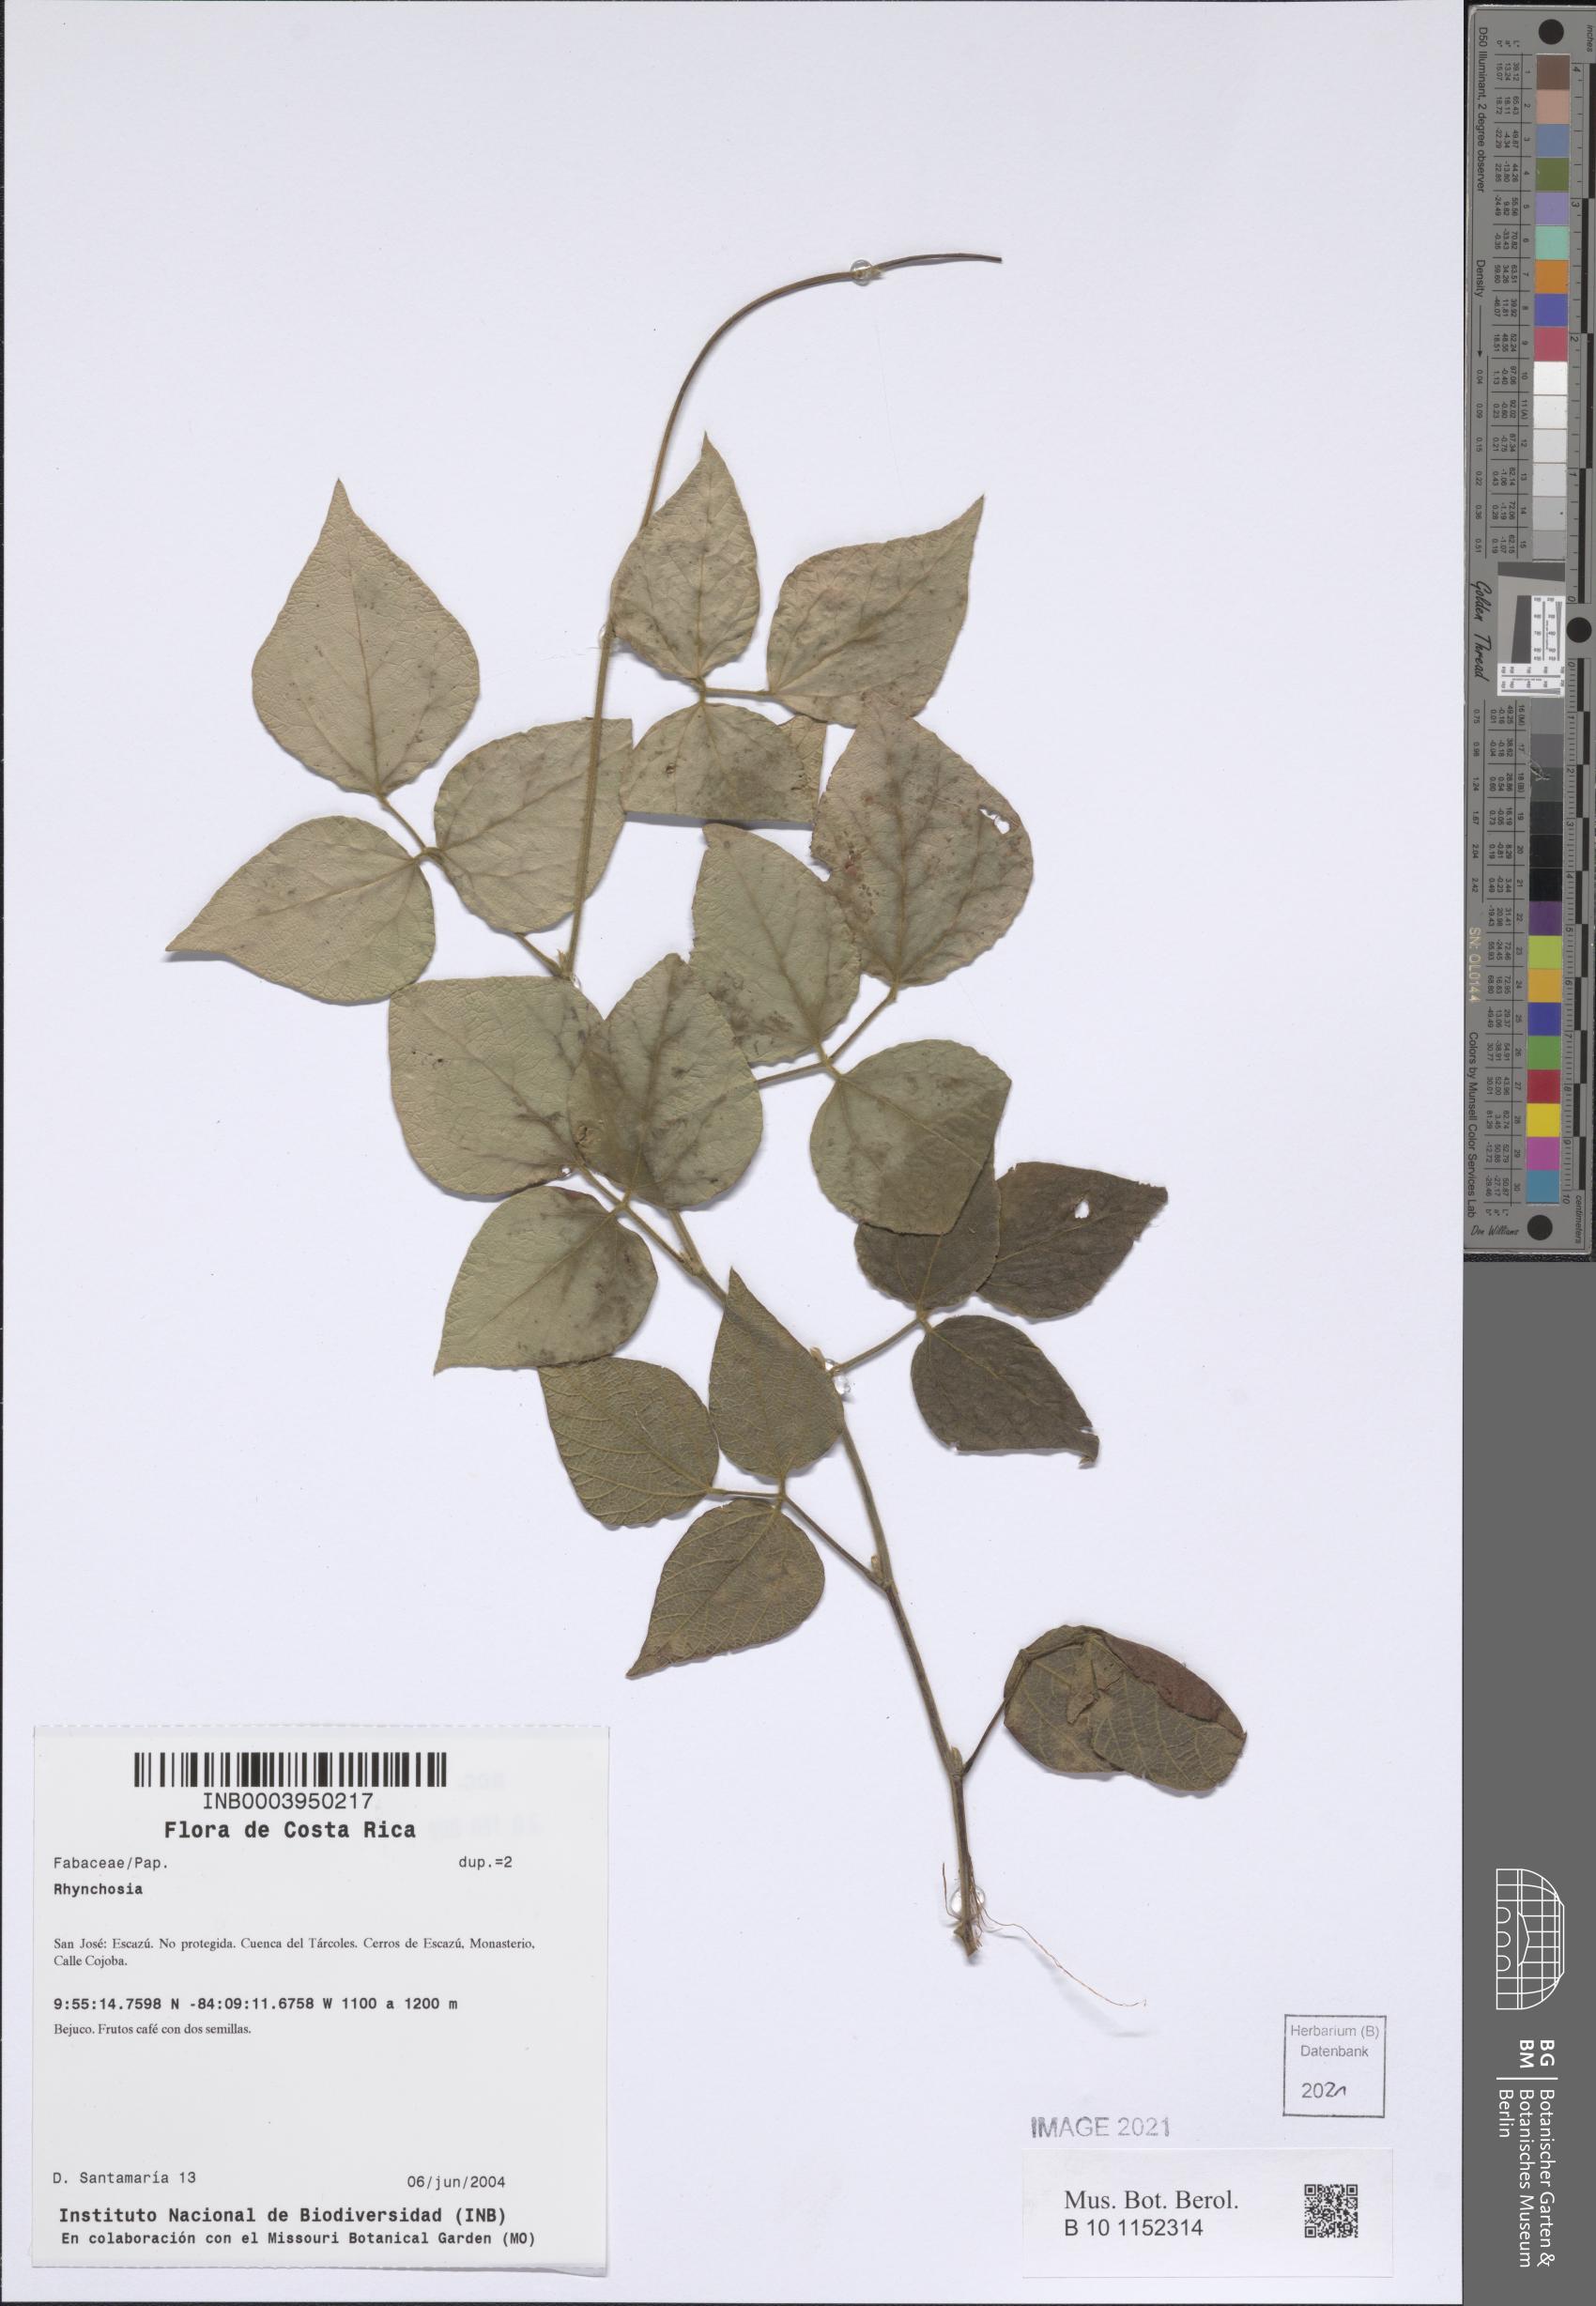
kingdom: Plantae
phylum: Tracheophyta
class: Magnoliopsida
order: Fabales
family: Fabaceae
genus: Rhynchosia
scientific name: Rhynchosia
